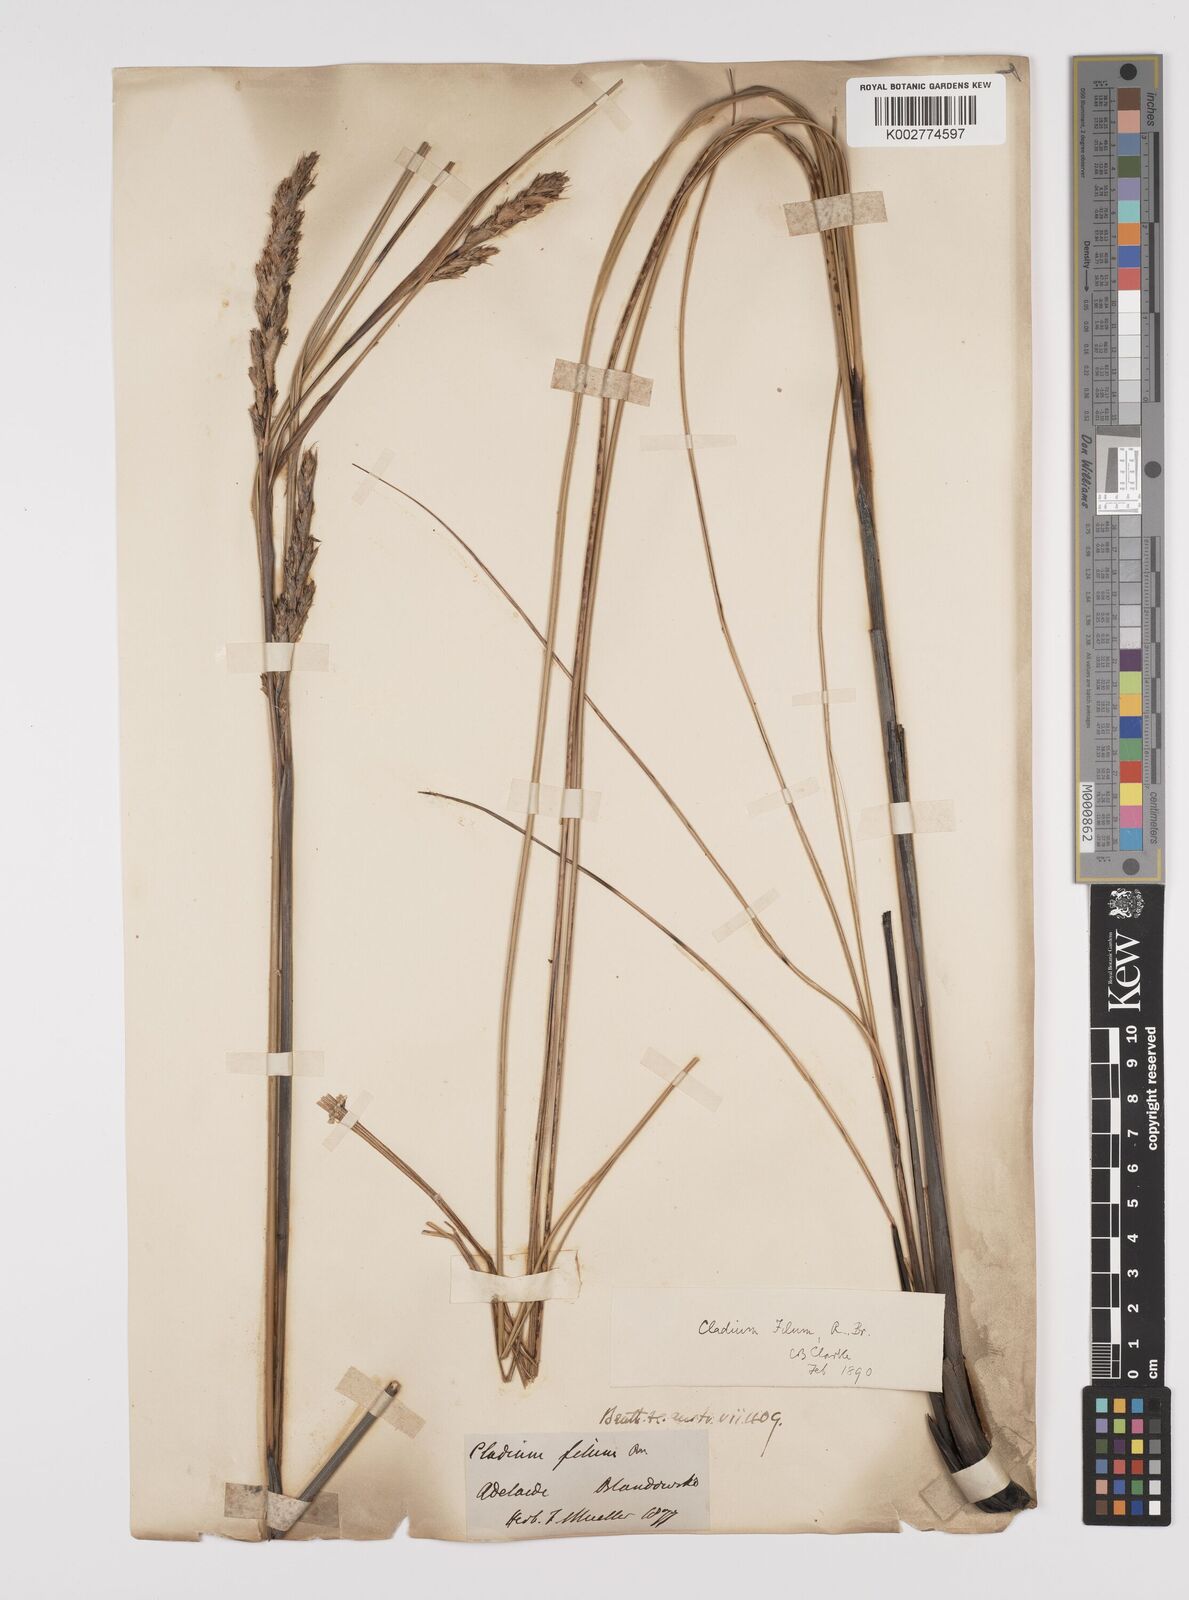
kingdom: Plantae
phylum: Tracheophyta
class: Liliopsida
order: Poales
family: Cyperaceae
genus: Gahnia
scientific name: Gahnia filum
